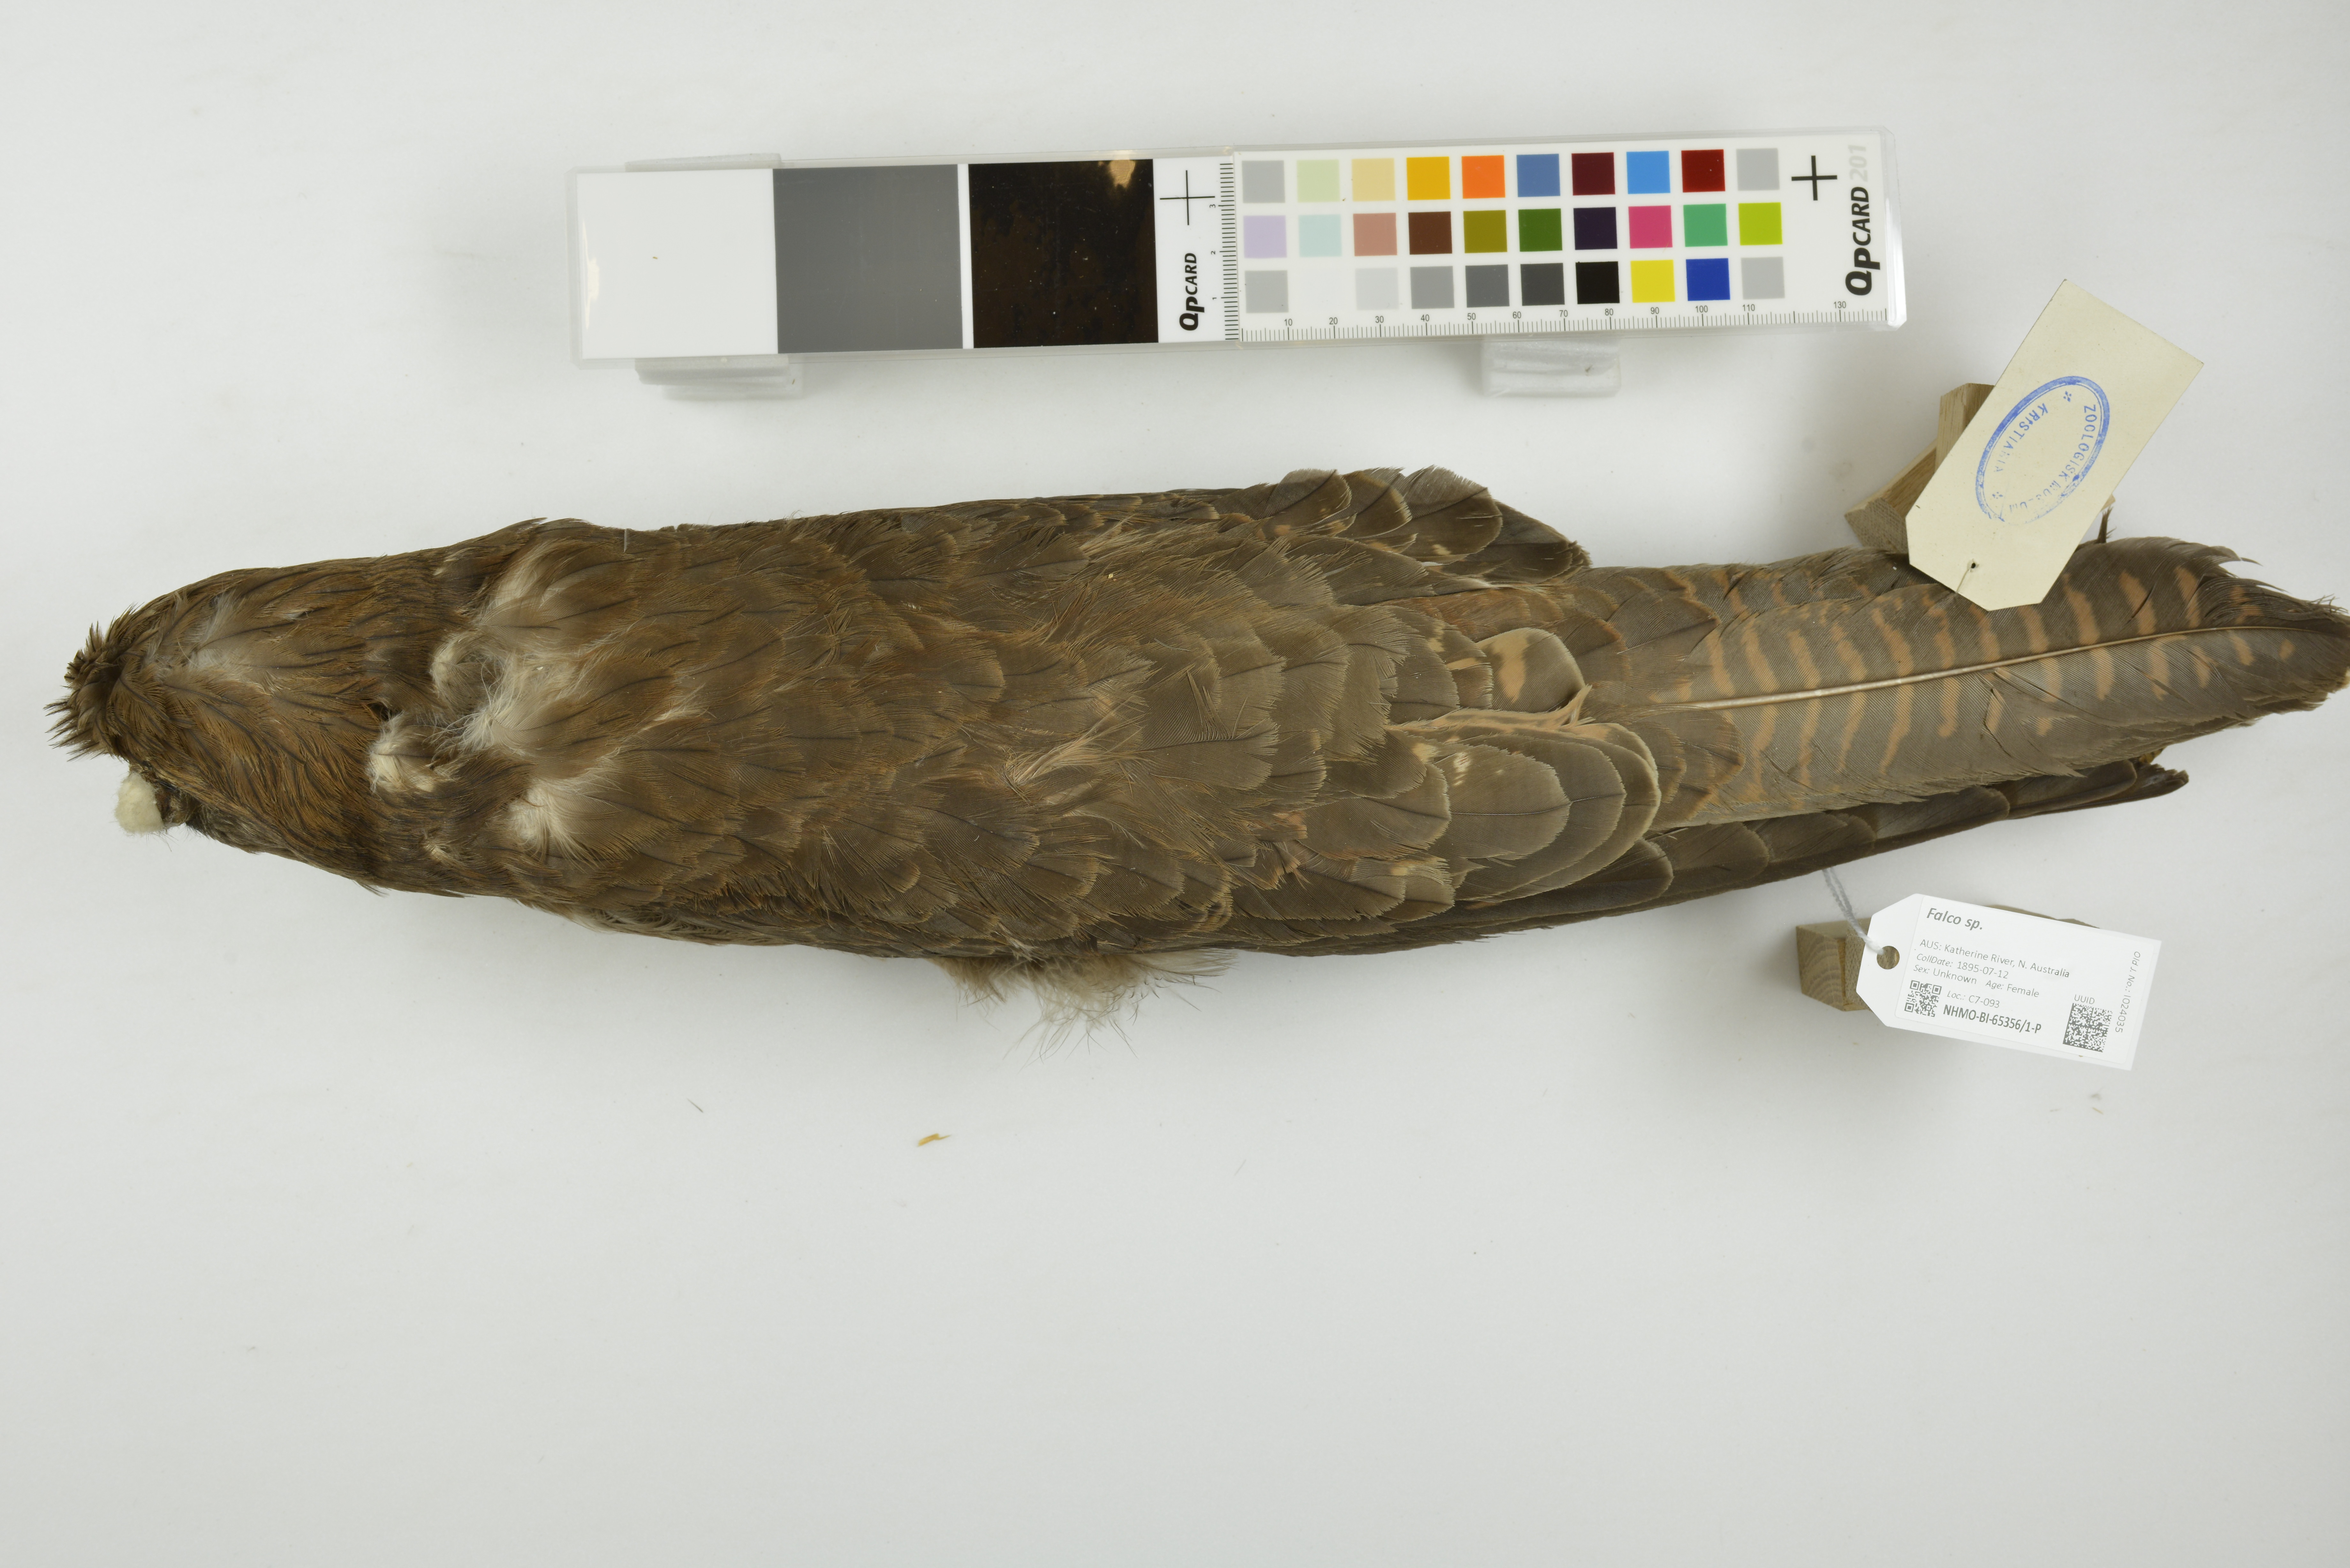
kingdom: Animalia
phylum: Chordata
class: Aves
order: Falconiformes
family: Falconidae
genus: Falco
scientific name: Falco berigora
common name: Brown falcon
